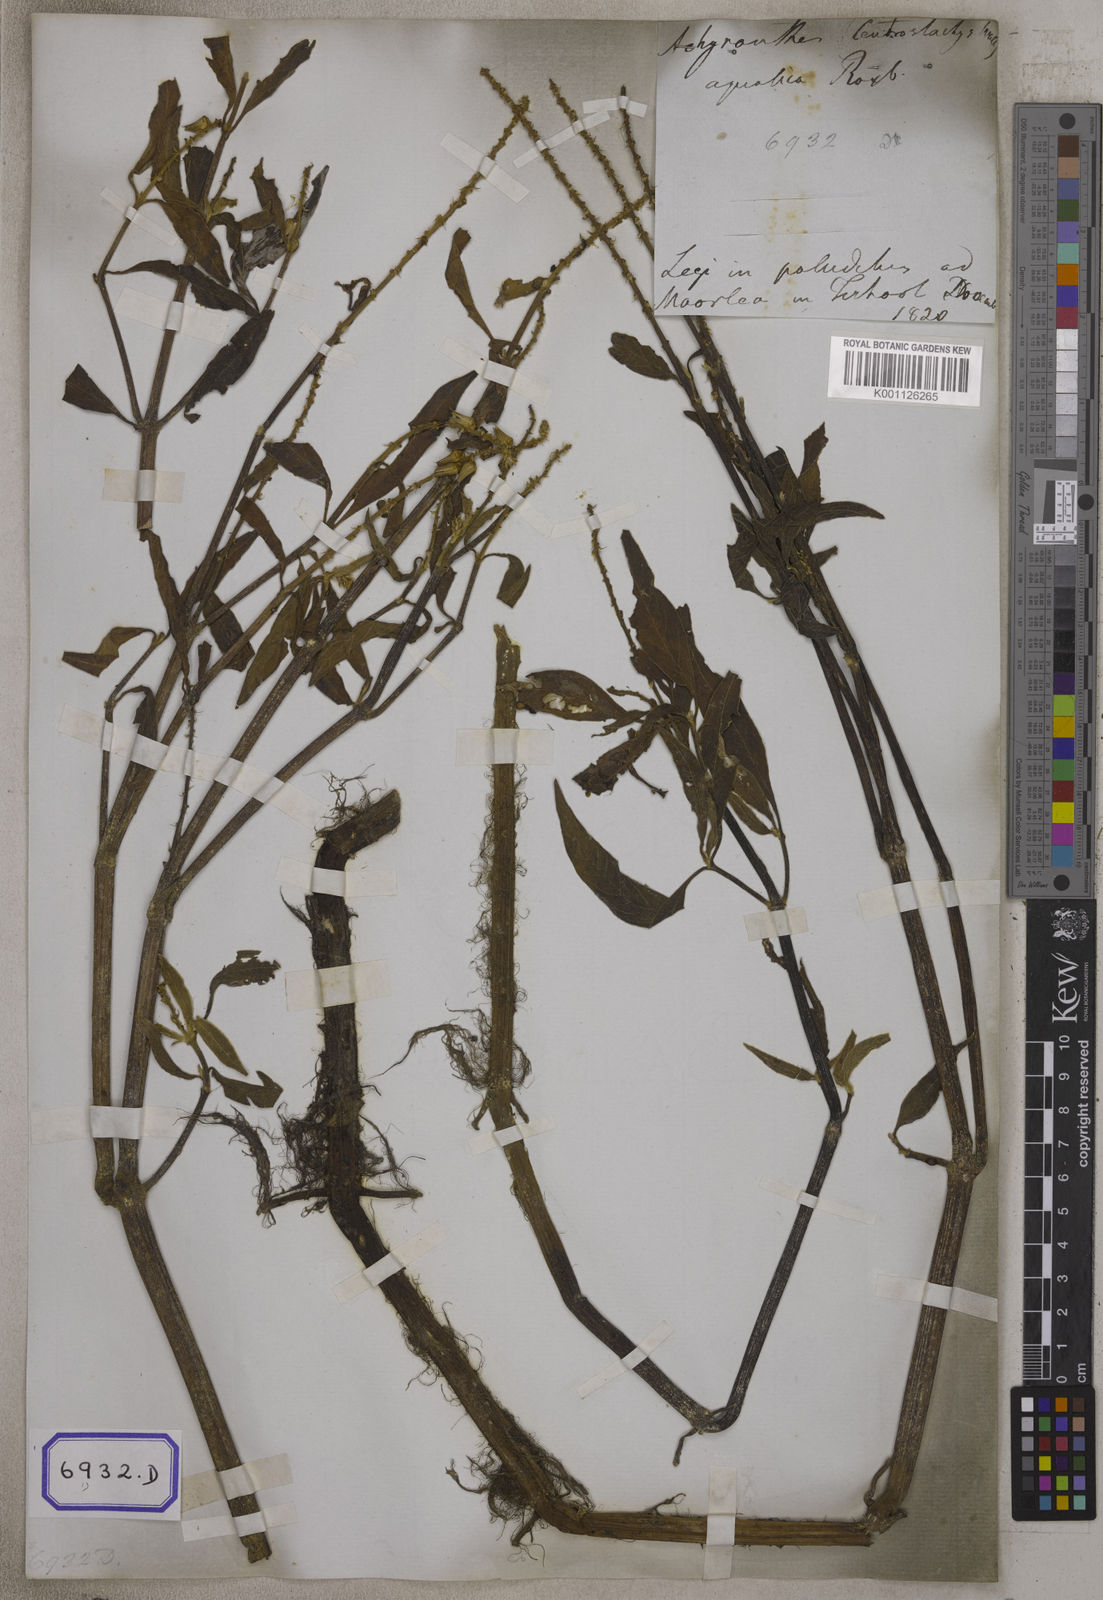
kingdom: Plantae
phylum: Tracheophyta
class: Magnoliopsida
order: Caryophyllales
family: Amaranthaceae
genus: Centrostachys
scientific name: Centrostachys
